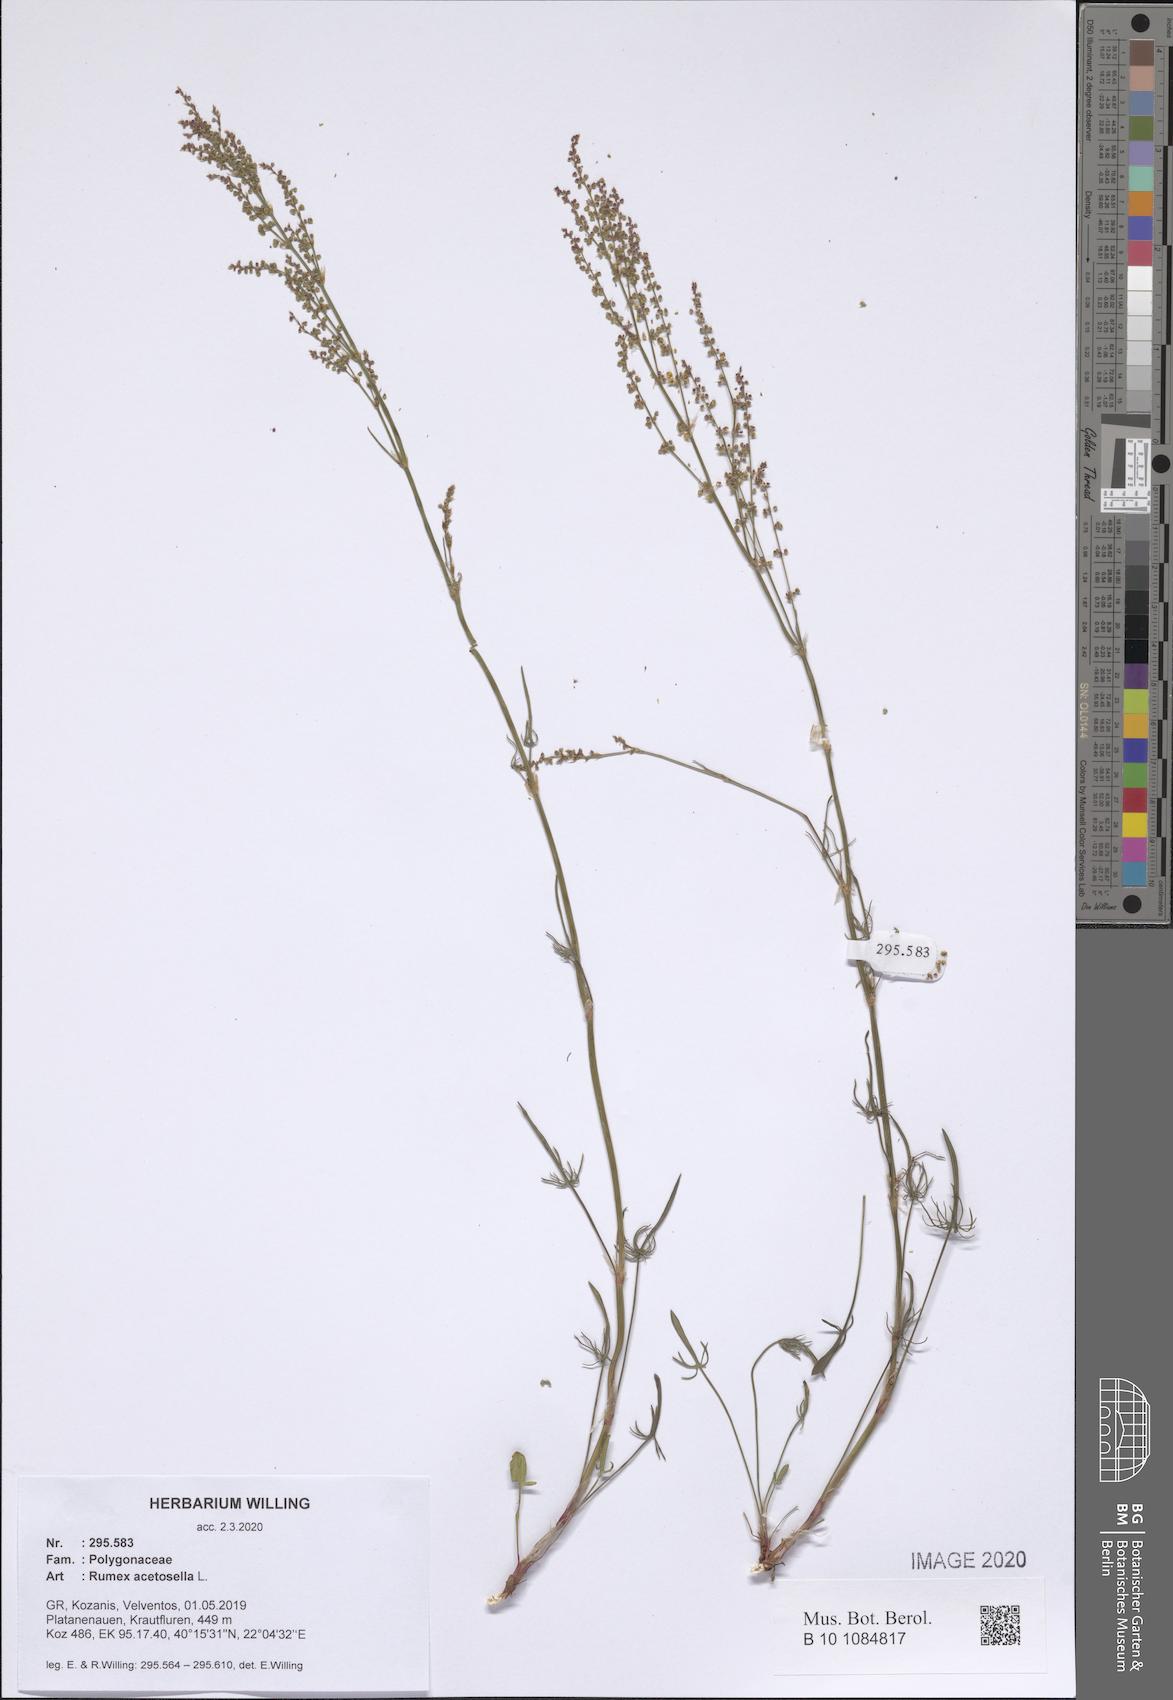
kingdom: Plantae
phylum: Tracheophyta
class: Magnoliopsida
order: Caryophyllales
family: Polygonaceae
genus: Rumex
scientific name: Rumex acetosella
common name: Common sheep sorrel
